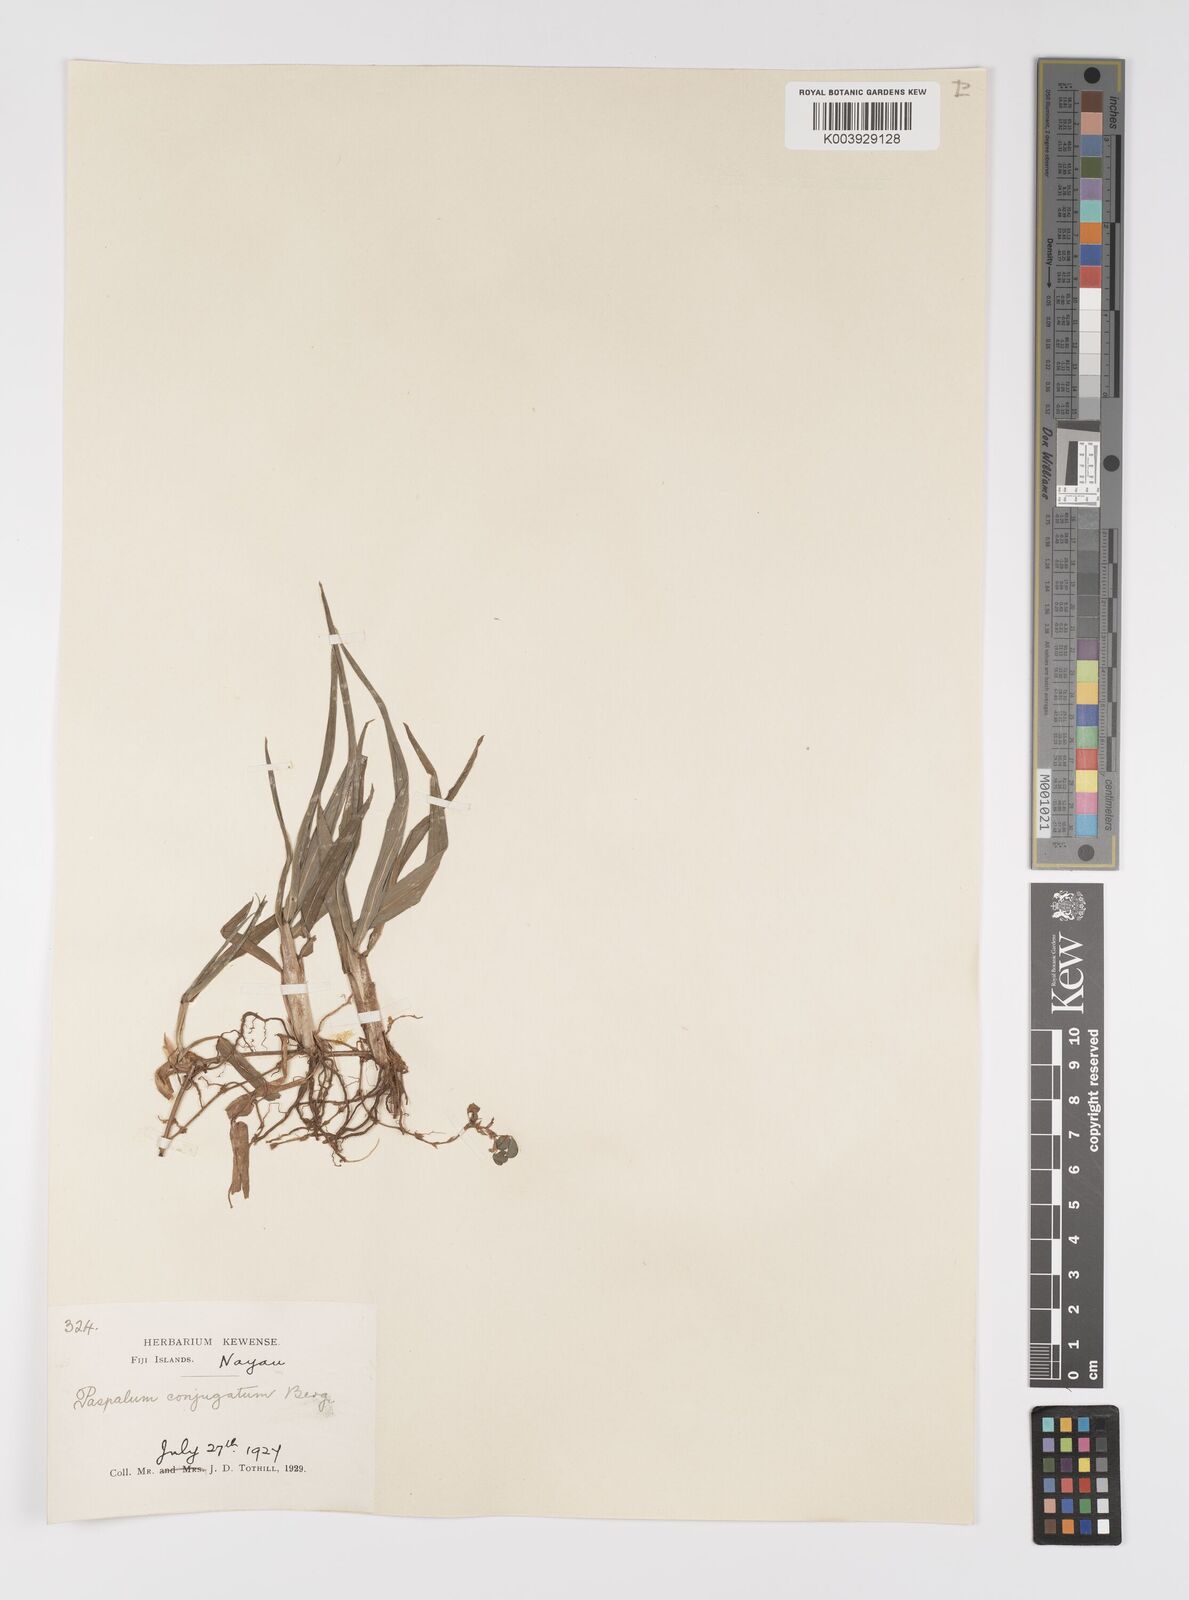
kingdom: Plantae
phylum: Tracheophyta
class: Liliopsida
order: Poales
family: Poaceae
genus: Paspalum
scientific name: Paspalum conjugatum
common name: Hilograss
